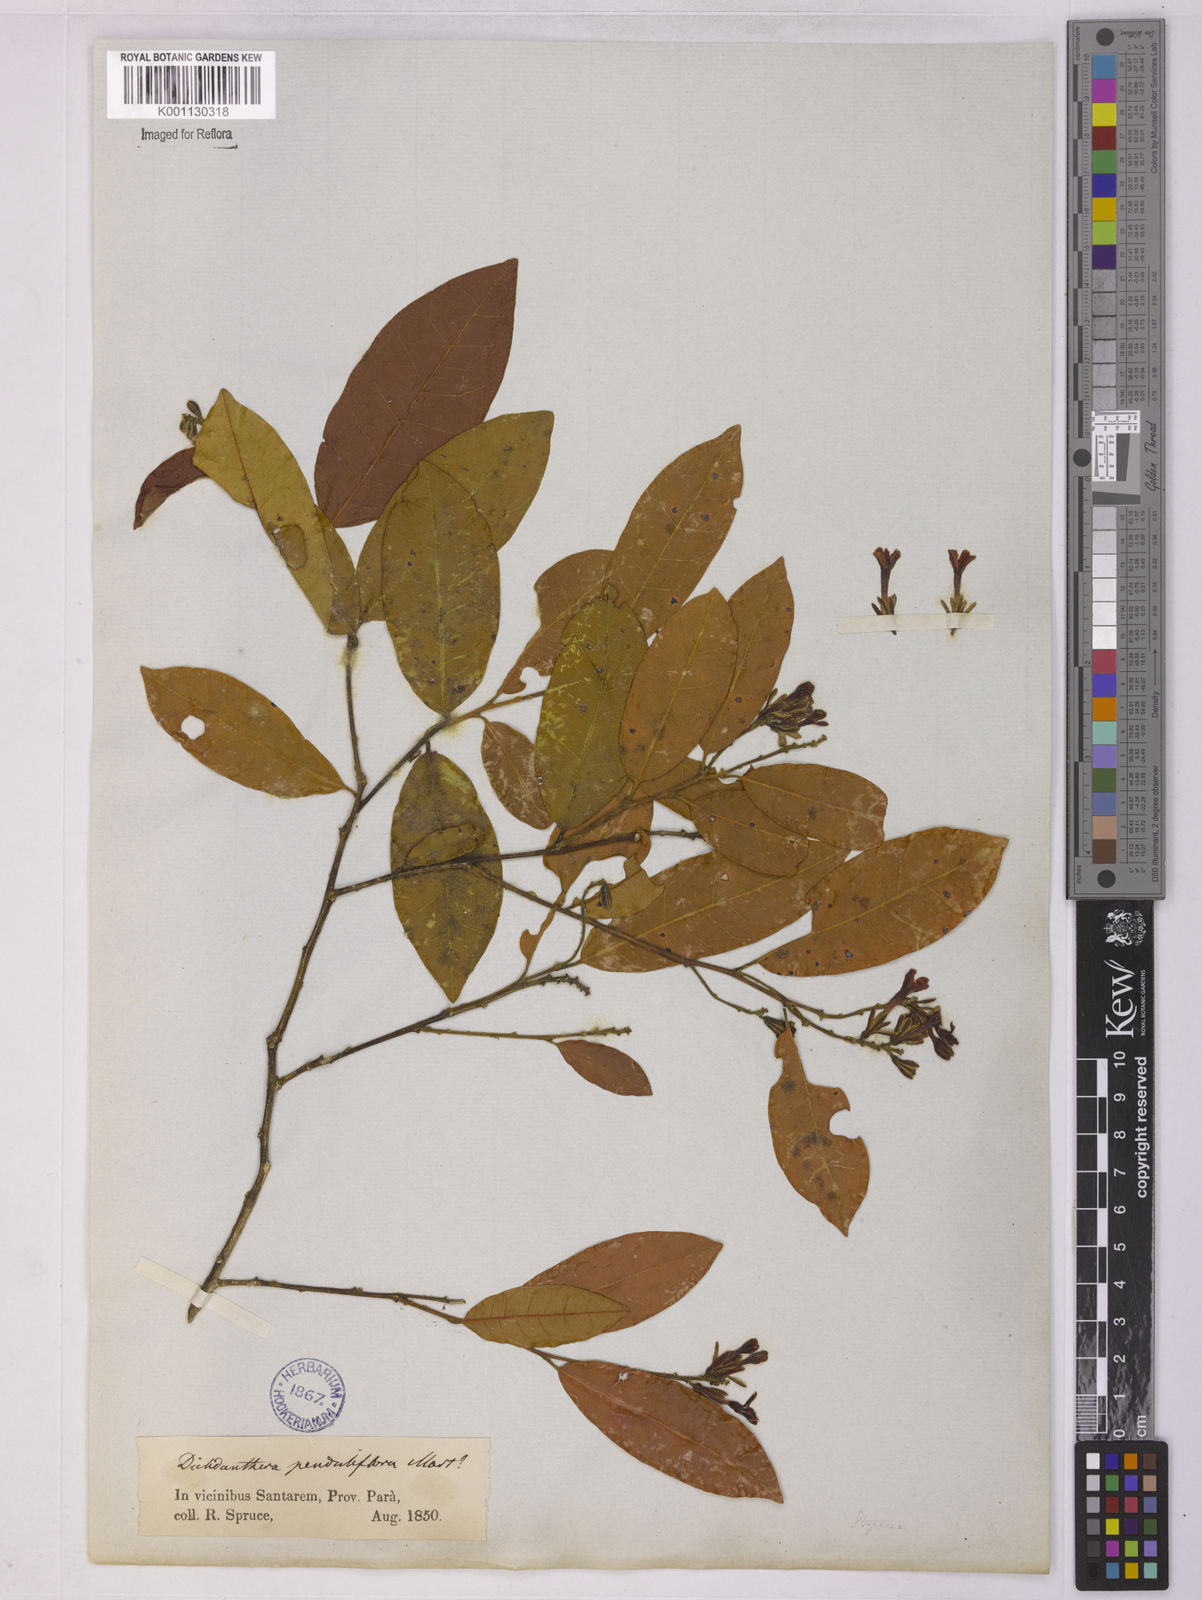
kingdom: Plantae
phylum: Tracheophyta
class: Magnoliopsida
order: Fabales
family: Polygalaceae
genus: Diclidanthera
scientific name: Diclidanthera penduliflora
